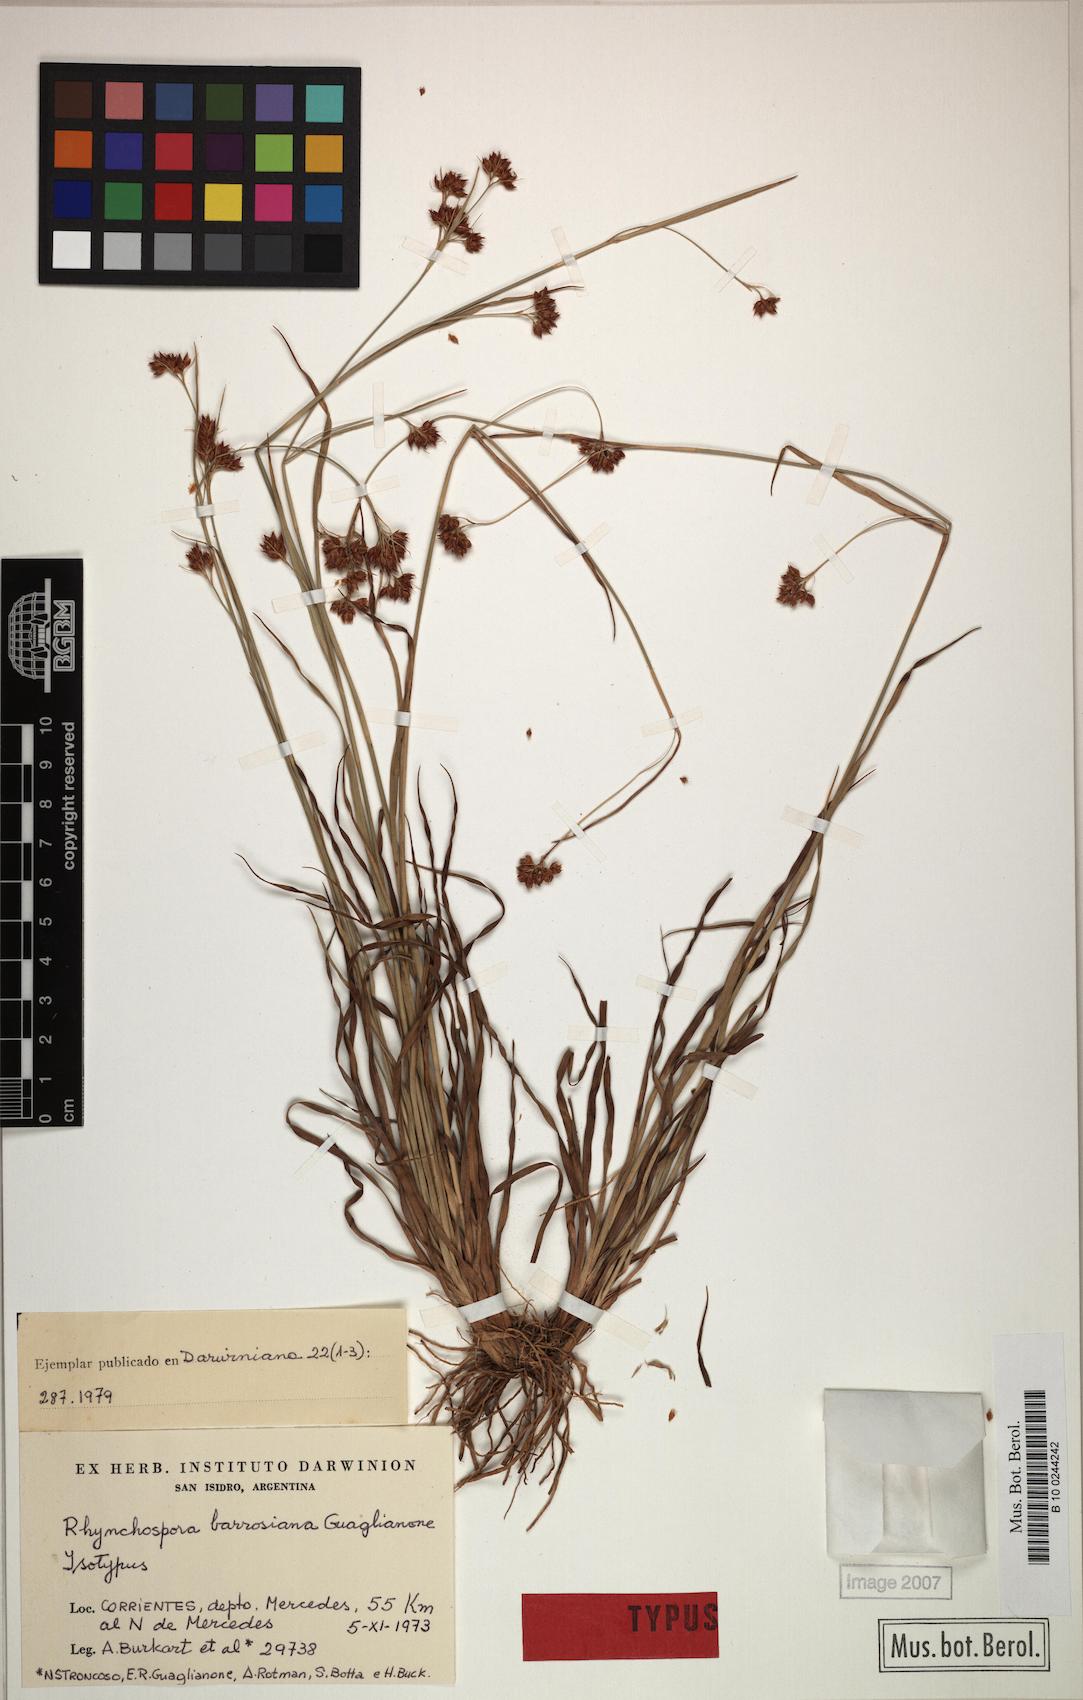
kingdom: Plantae
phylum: Tracheophyta
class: Liliopsida
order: Poales
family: Cyperaceae
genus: Rhynchospora
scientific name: Rhynchospora barrosiana
